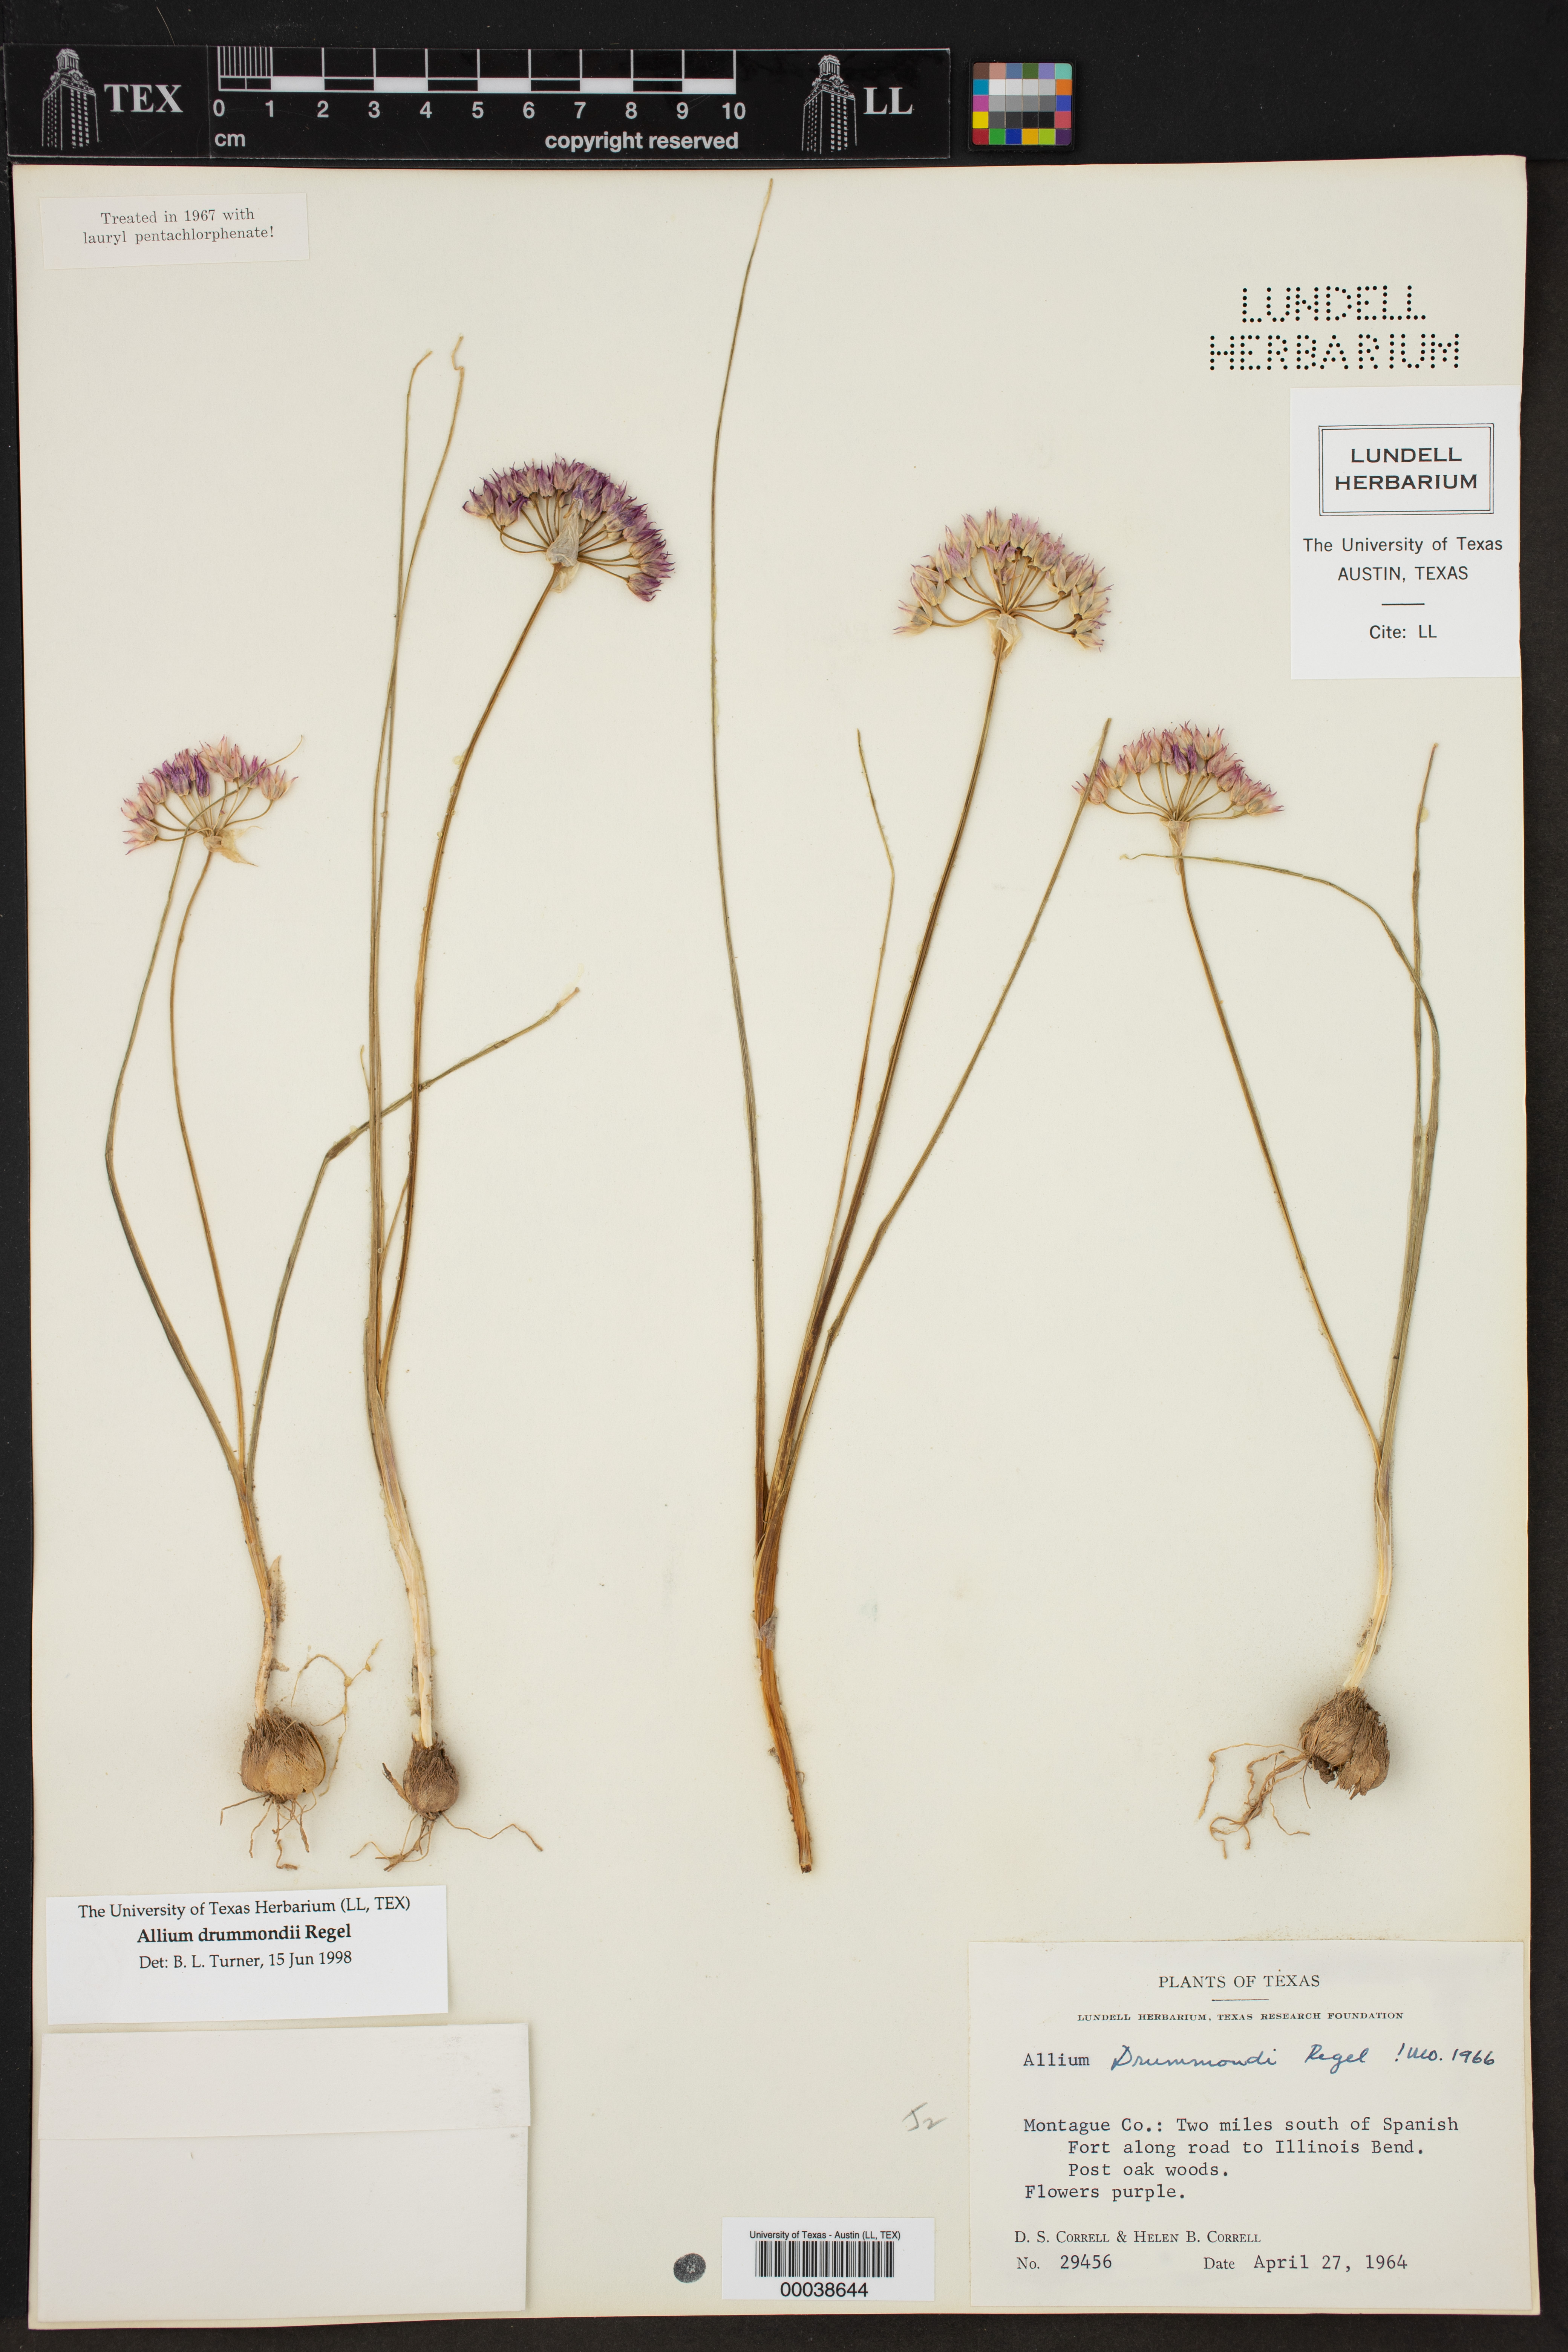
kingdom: Plantae
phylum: Tracheophyta
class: Liliopsida
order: Asparagales
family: Amaryllidaceae
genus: Allium
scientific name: Allium drummondii
